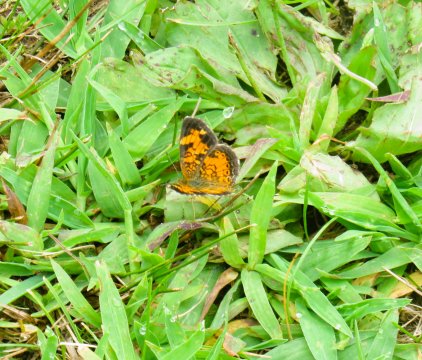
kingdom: Animalia
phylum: Arthropoda
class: Insecta
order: Lepidoptera
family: Nymphalidae
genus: Phyciodes
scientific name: Phyciodes tharos
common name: Pearl Crescent
